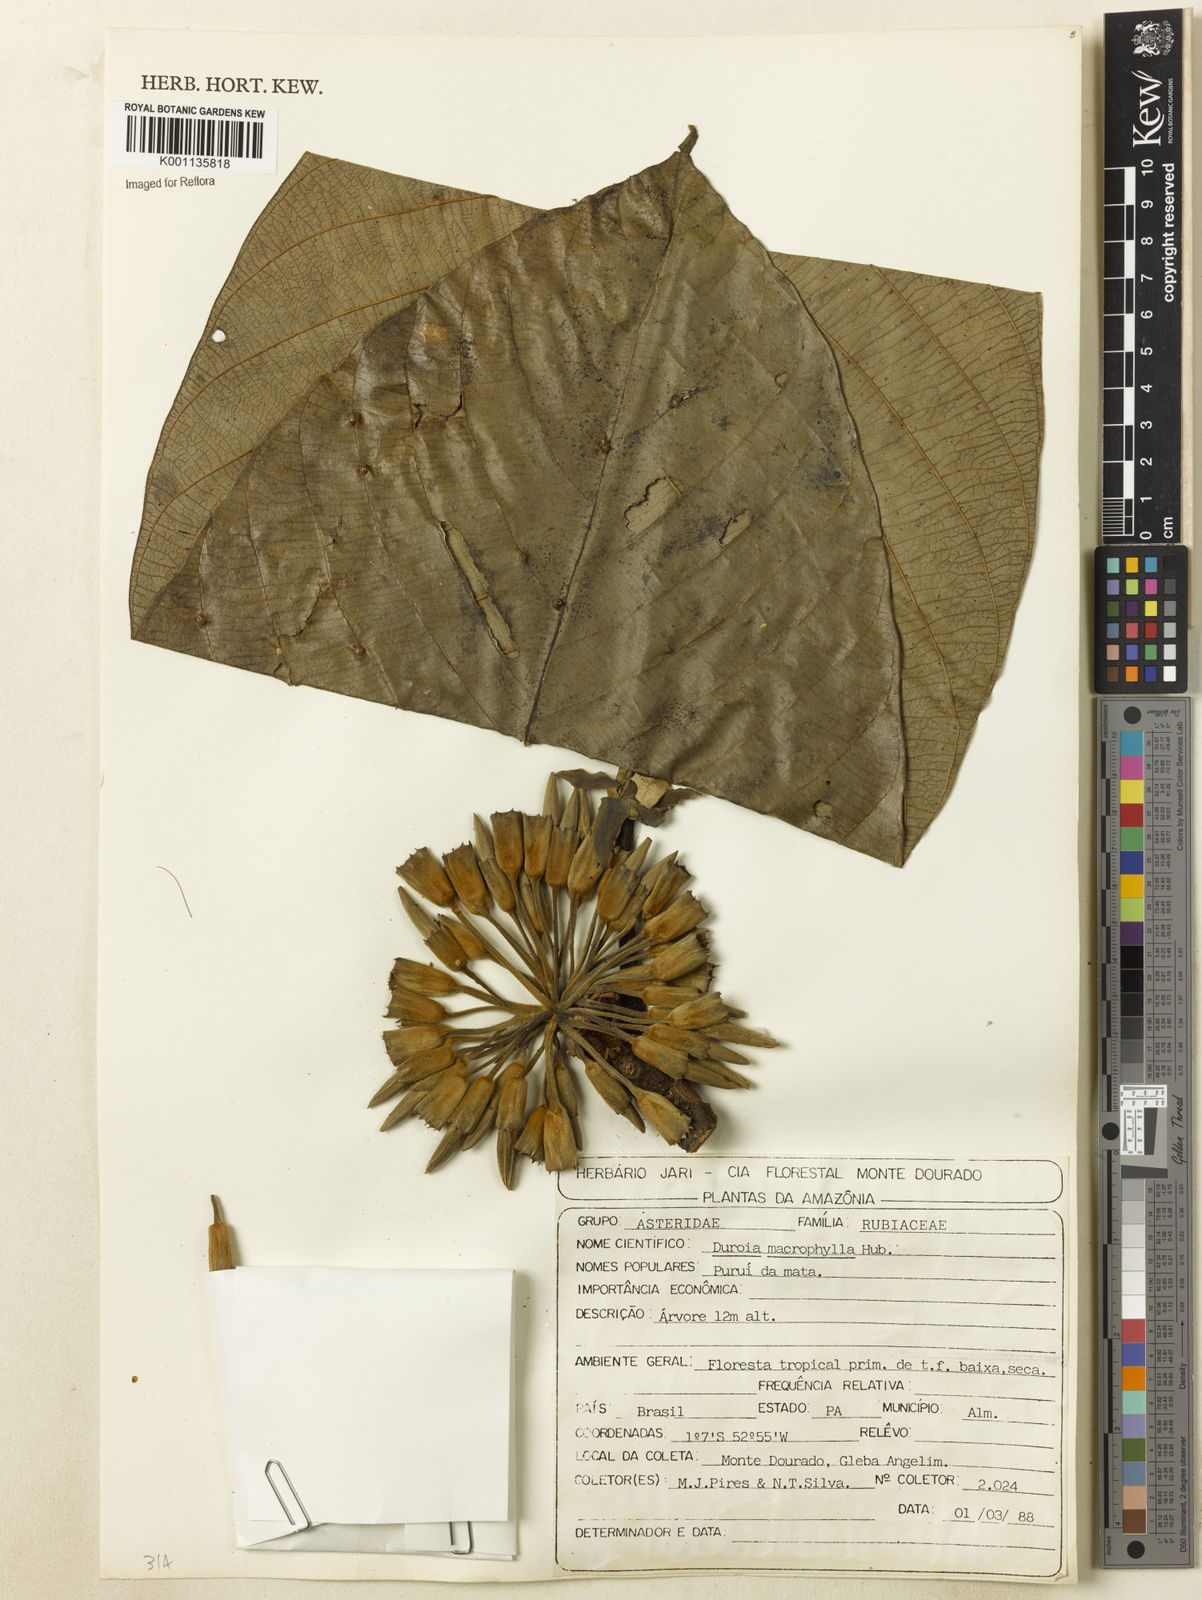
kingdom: Plantae
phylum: Tracheophyta
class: Magnoliopsida
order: Gentianales
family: Rubiaceae
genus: Duroia
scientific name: Duroia macrophylla
